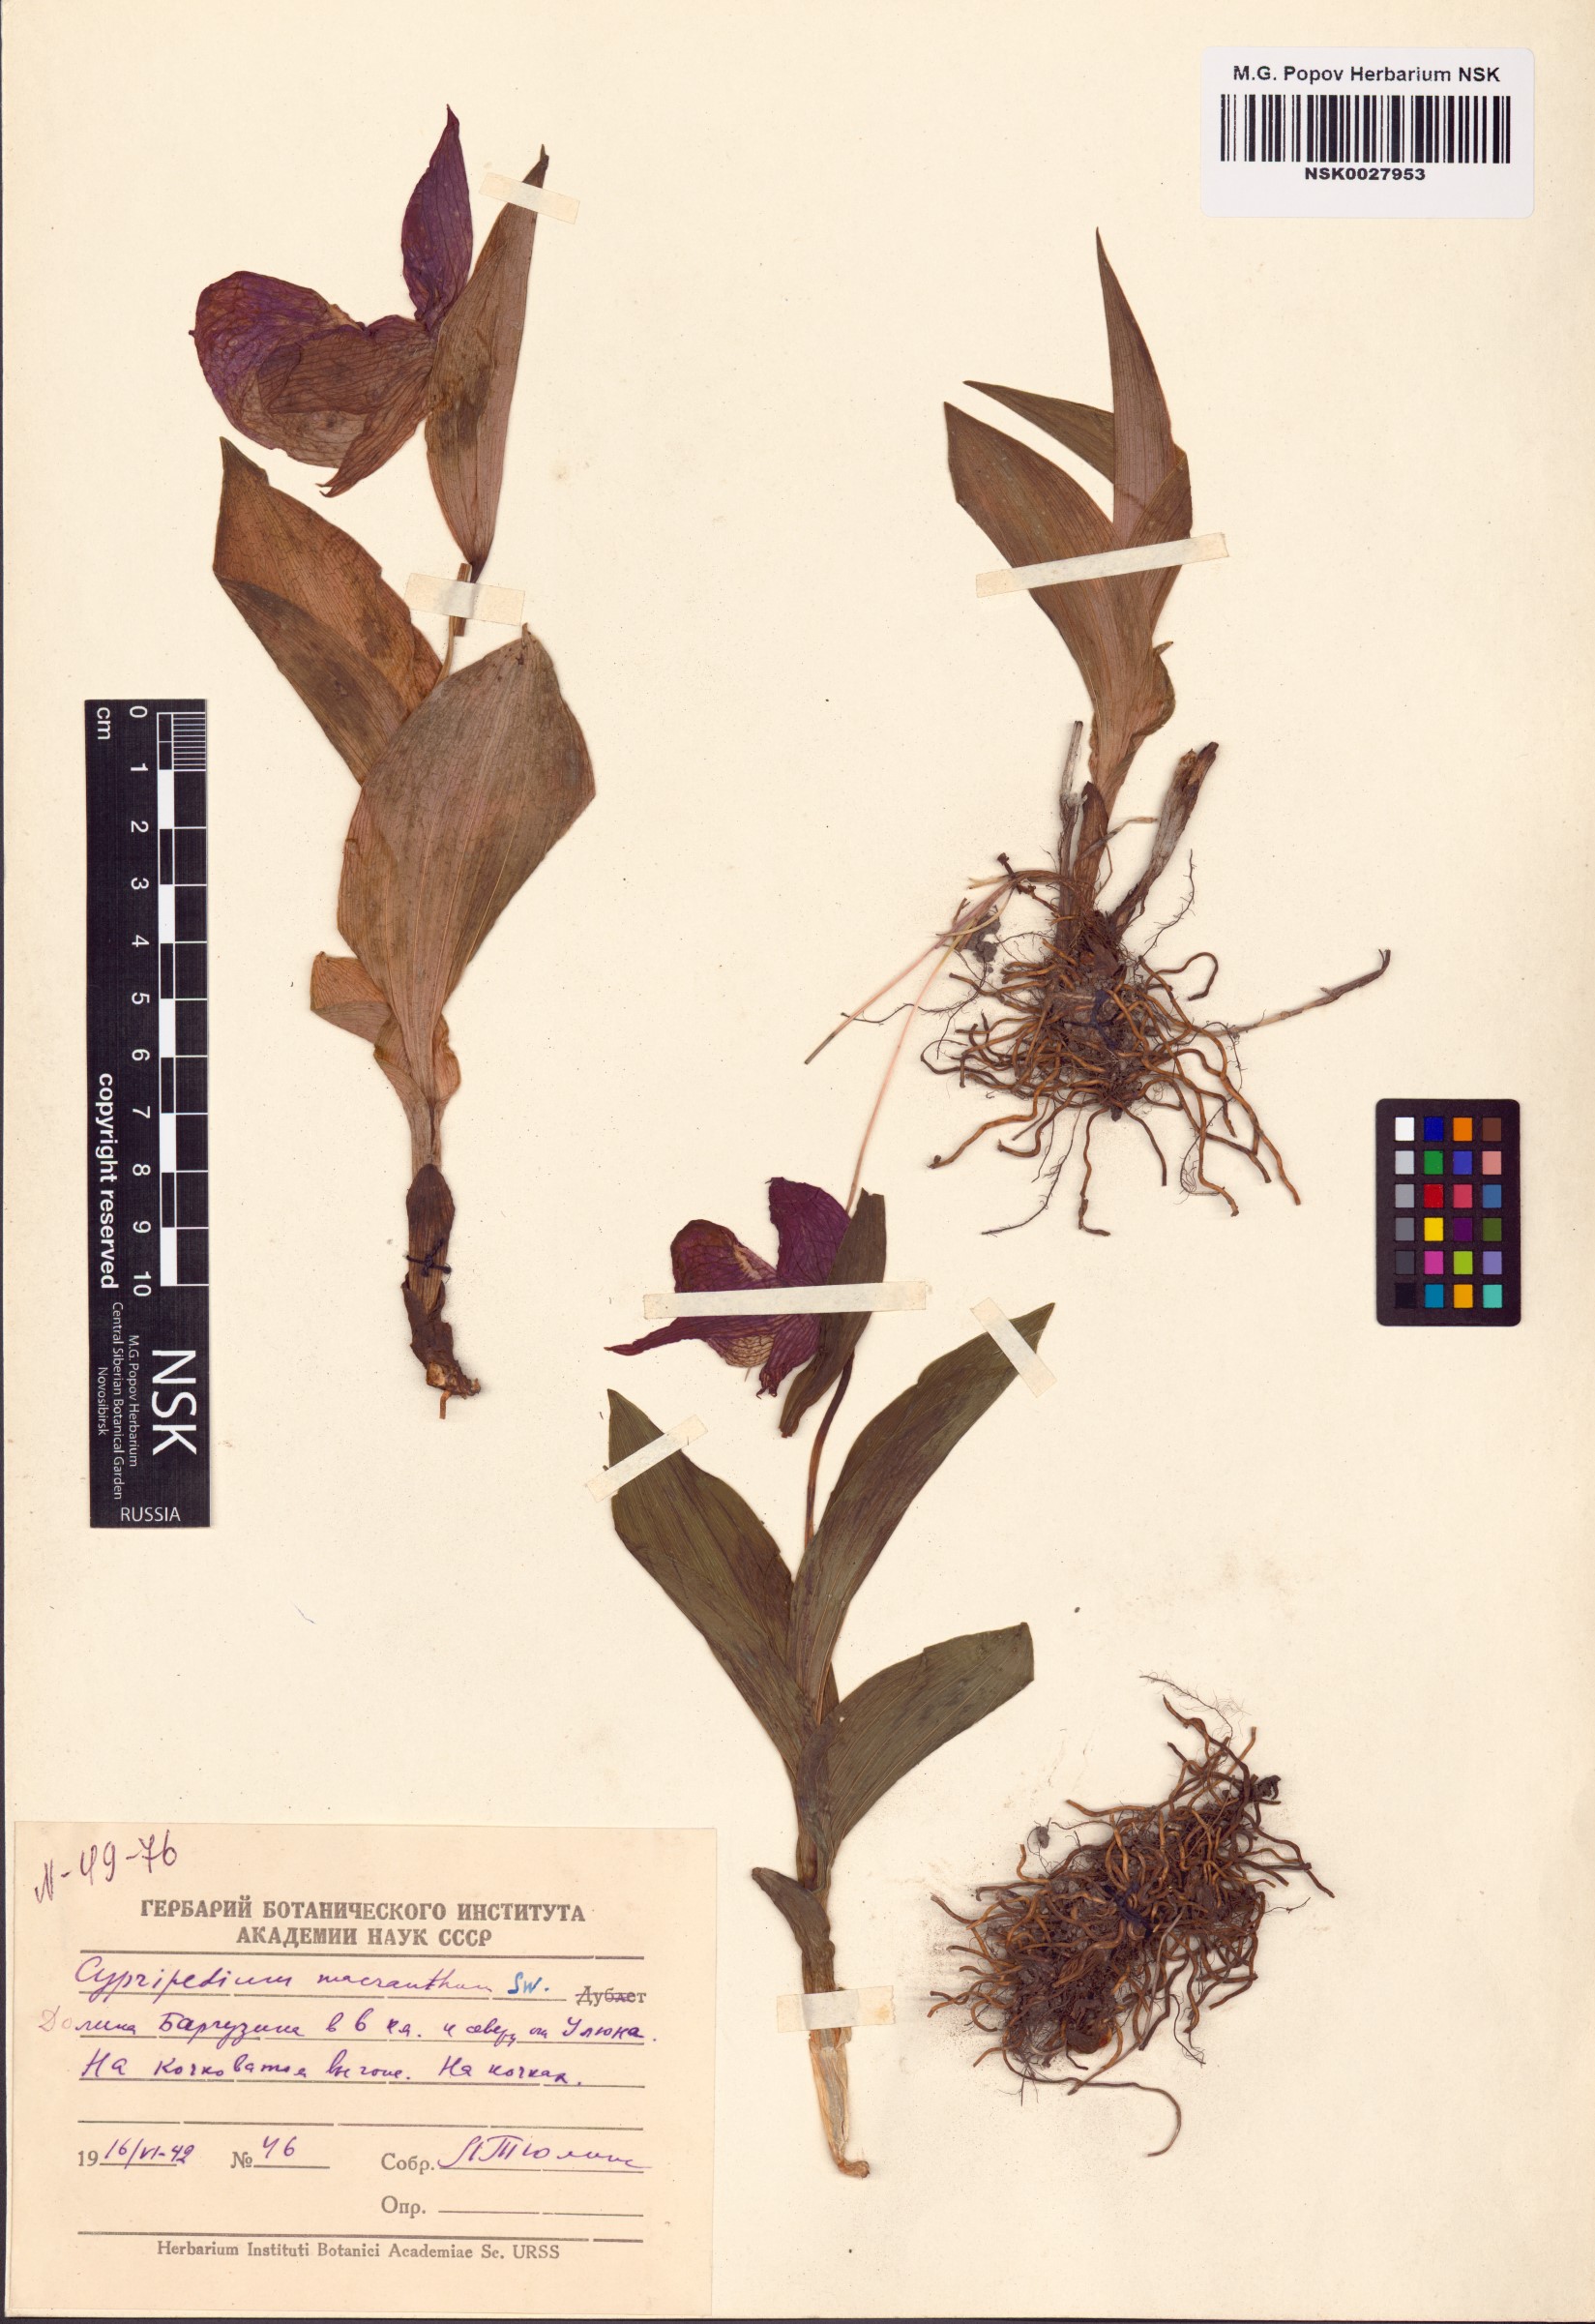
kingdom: Plantae
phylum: Tracheophyta
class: Liliopsida
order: Asparagales
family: Orchidaceae
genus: Cypripedium
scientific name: Cypripedium macranthos
